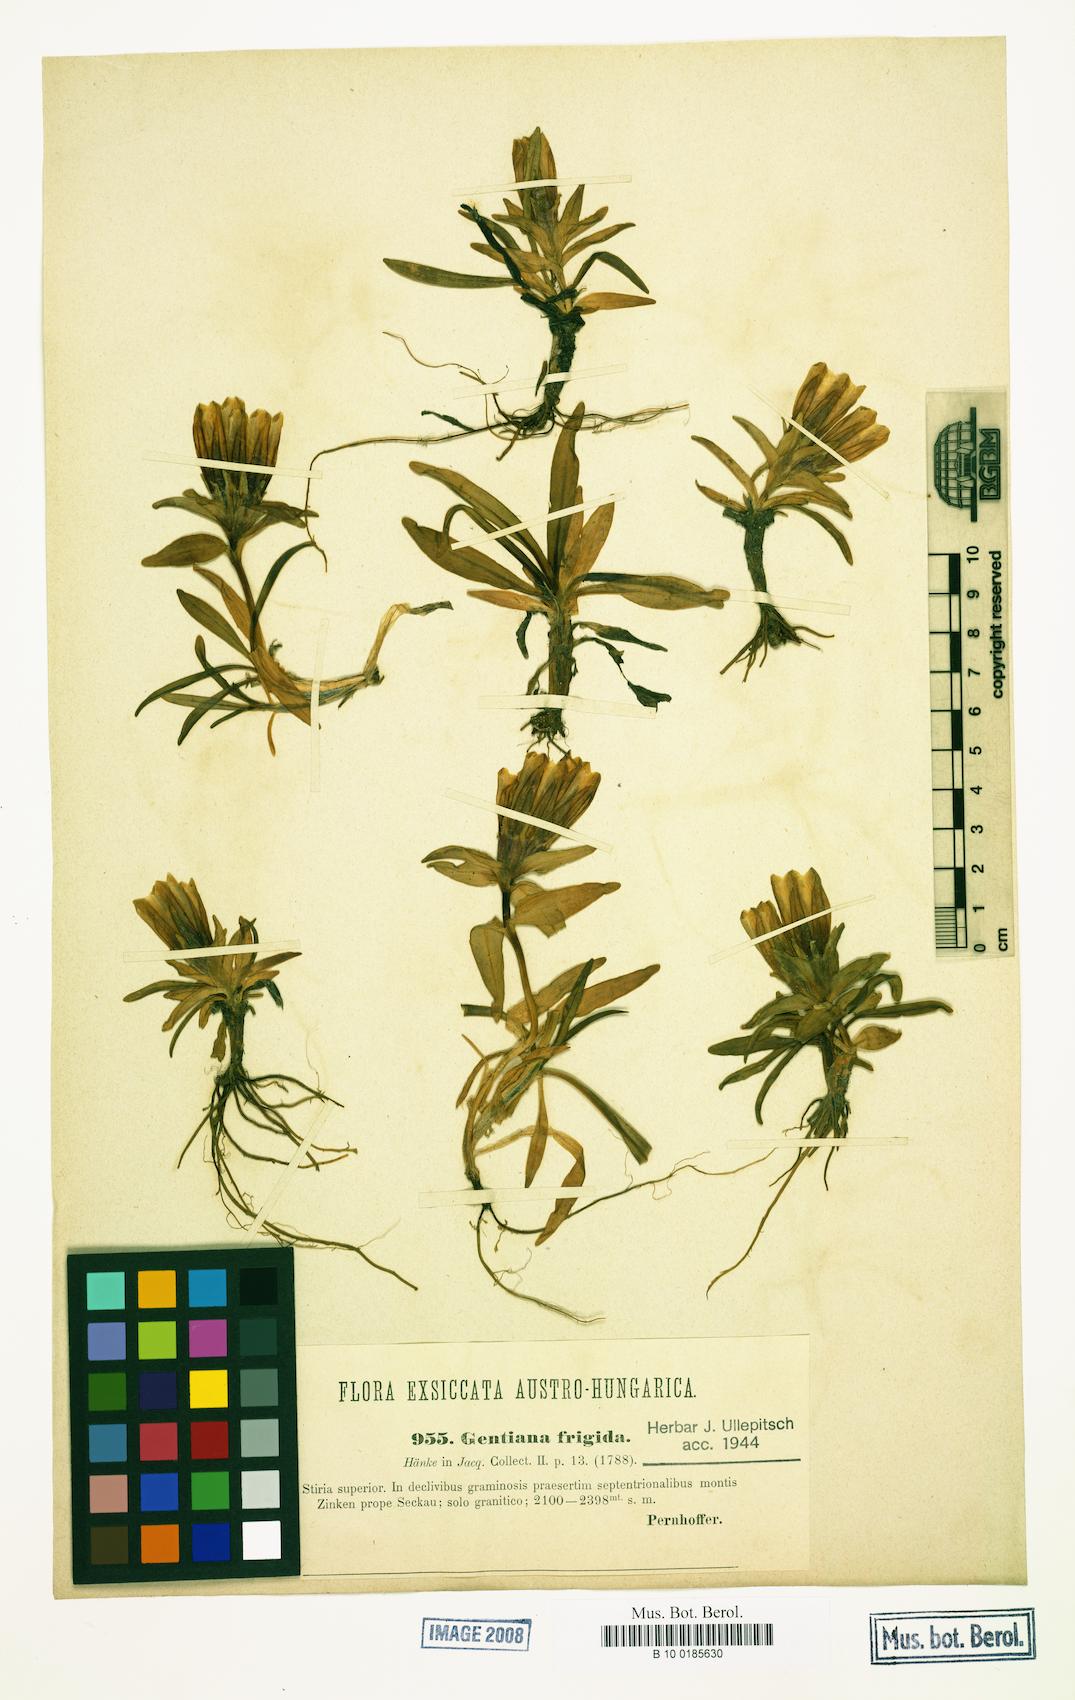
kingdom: Plantae
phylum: Tracheophyta
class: Magnoliopsida
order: Gentianales
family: Gentianaceae
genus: Gentiana
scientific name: Gentiana frigida
